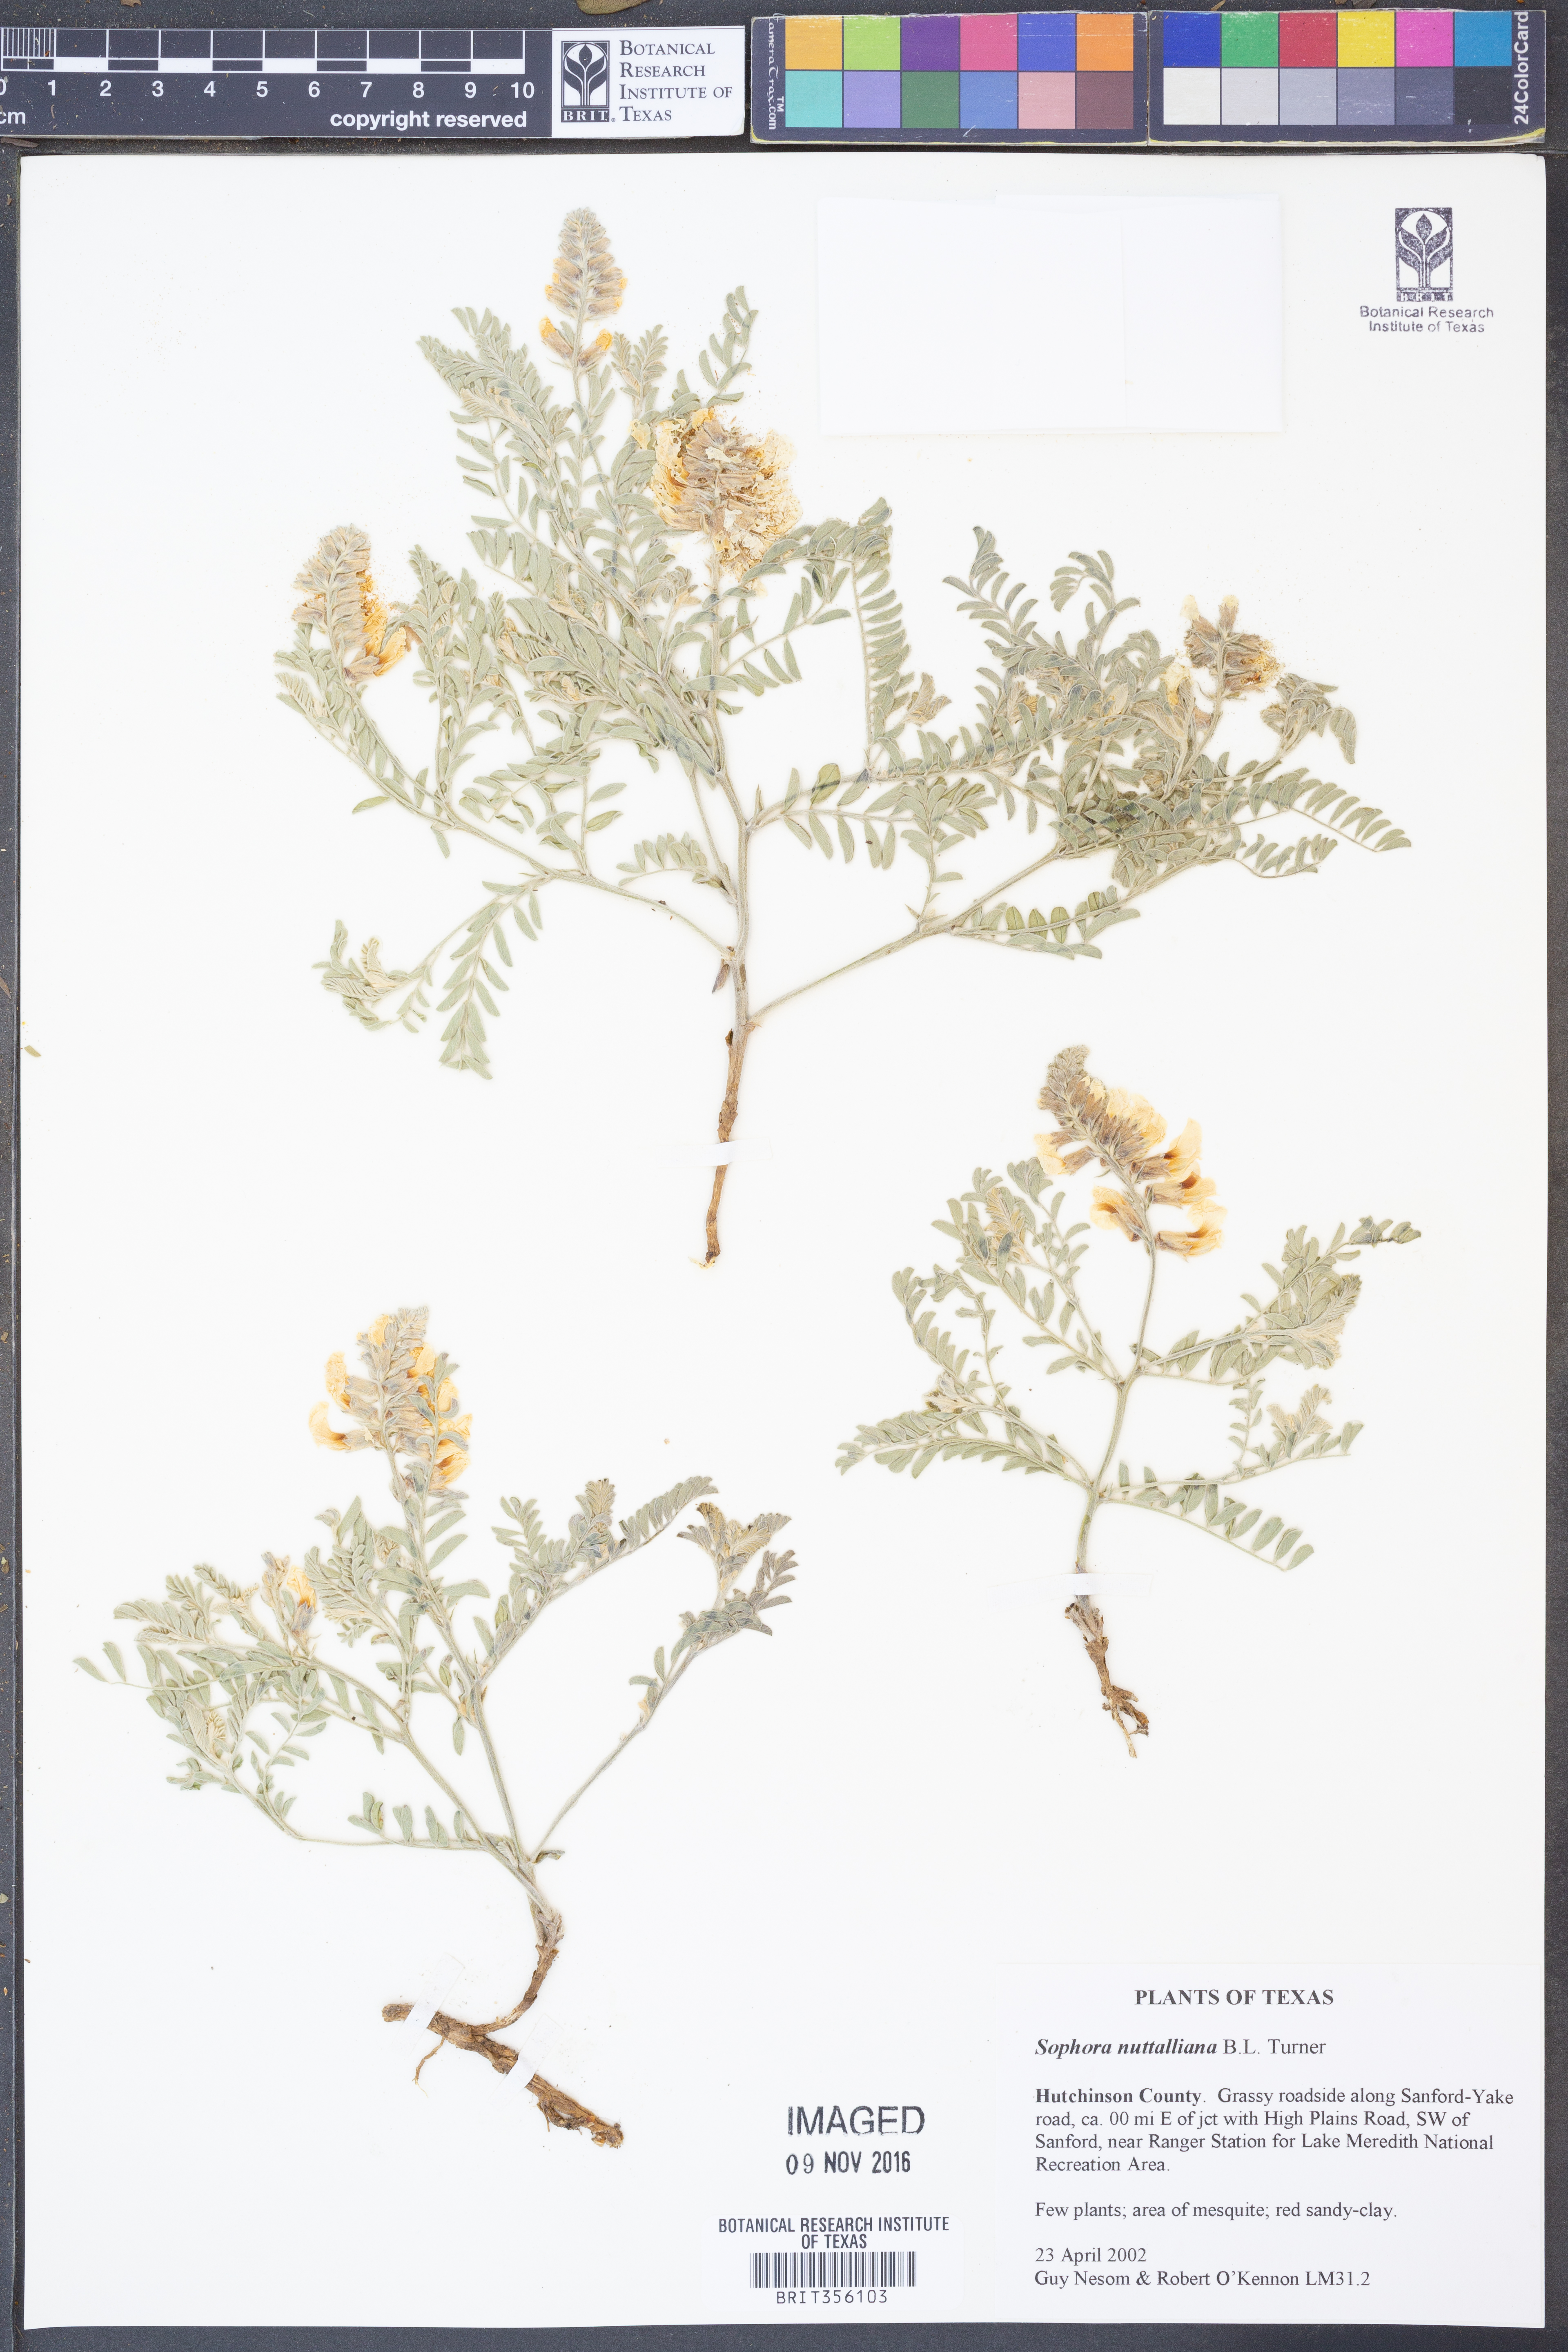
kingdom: Plantae
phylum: Tracheophyta
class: Magnoliopsida
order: Fabales
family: Fabaceae
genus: Sophora
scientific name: Sophora nuttalliana
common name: Silky sophora
